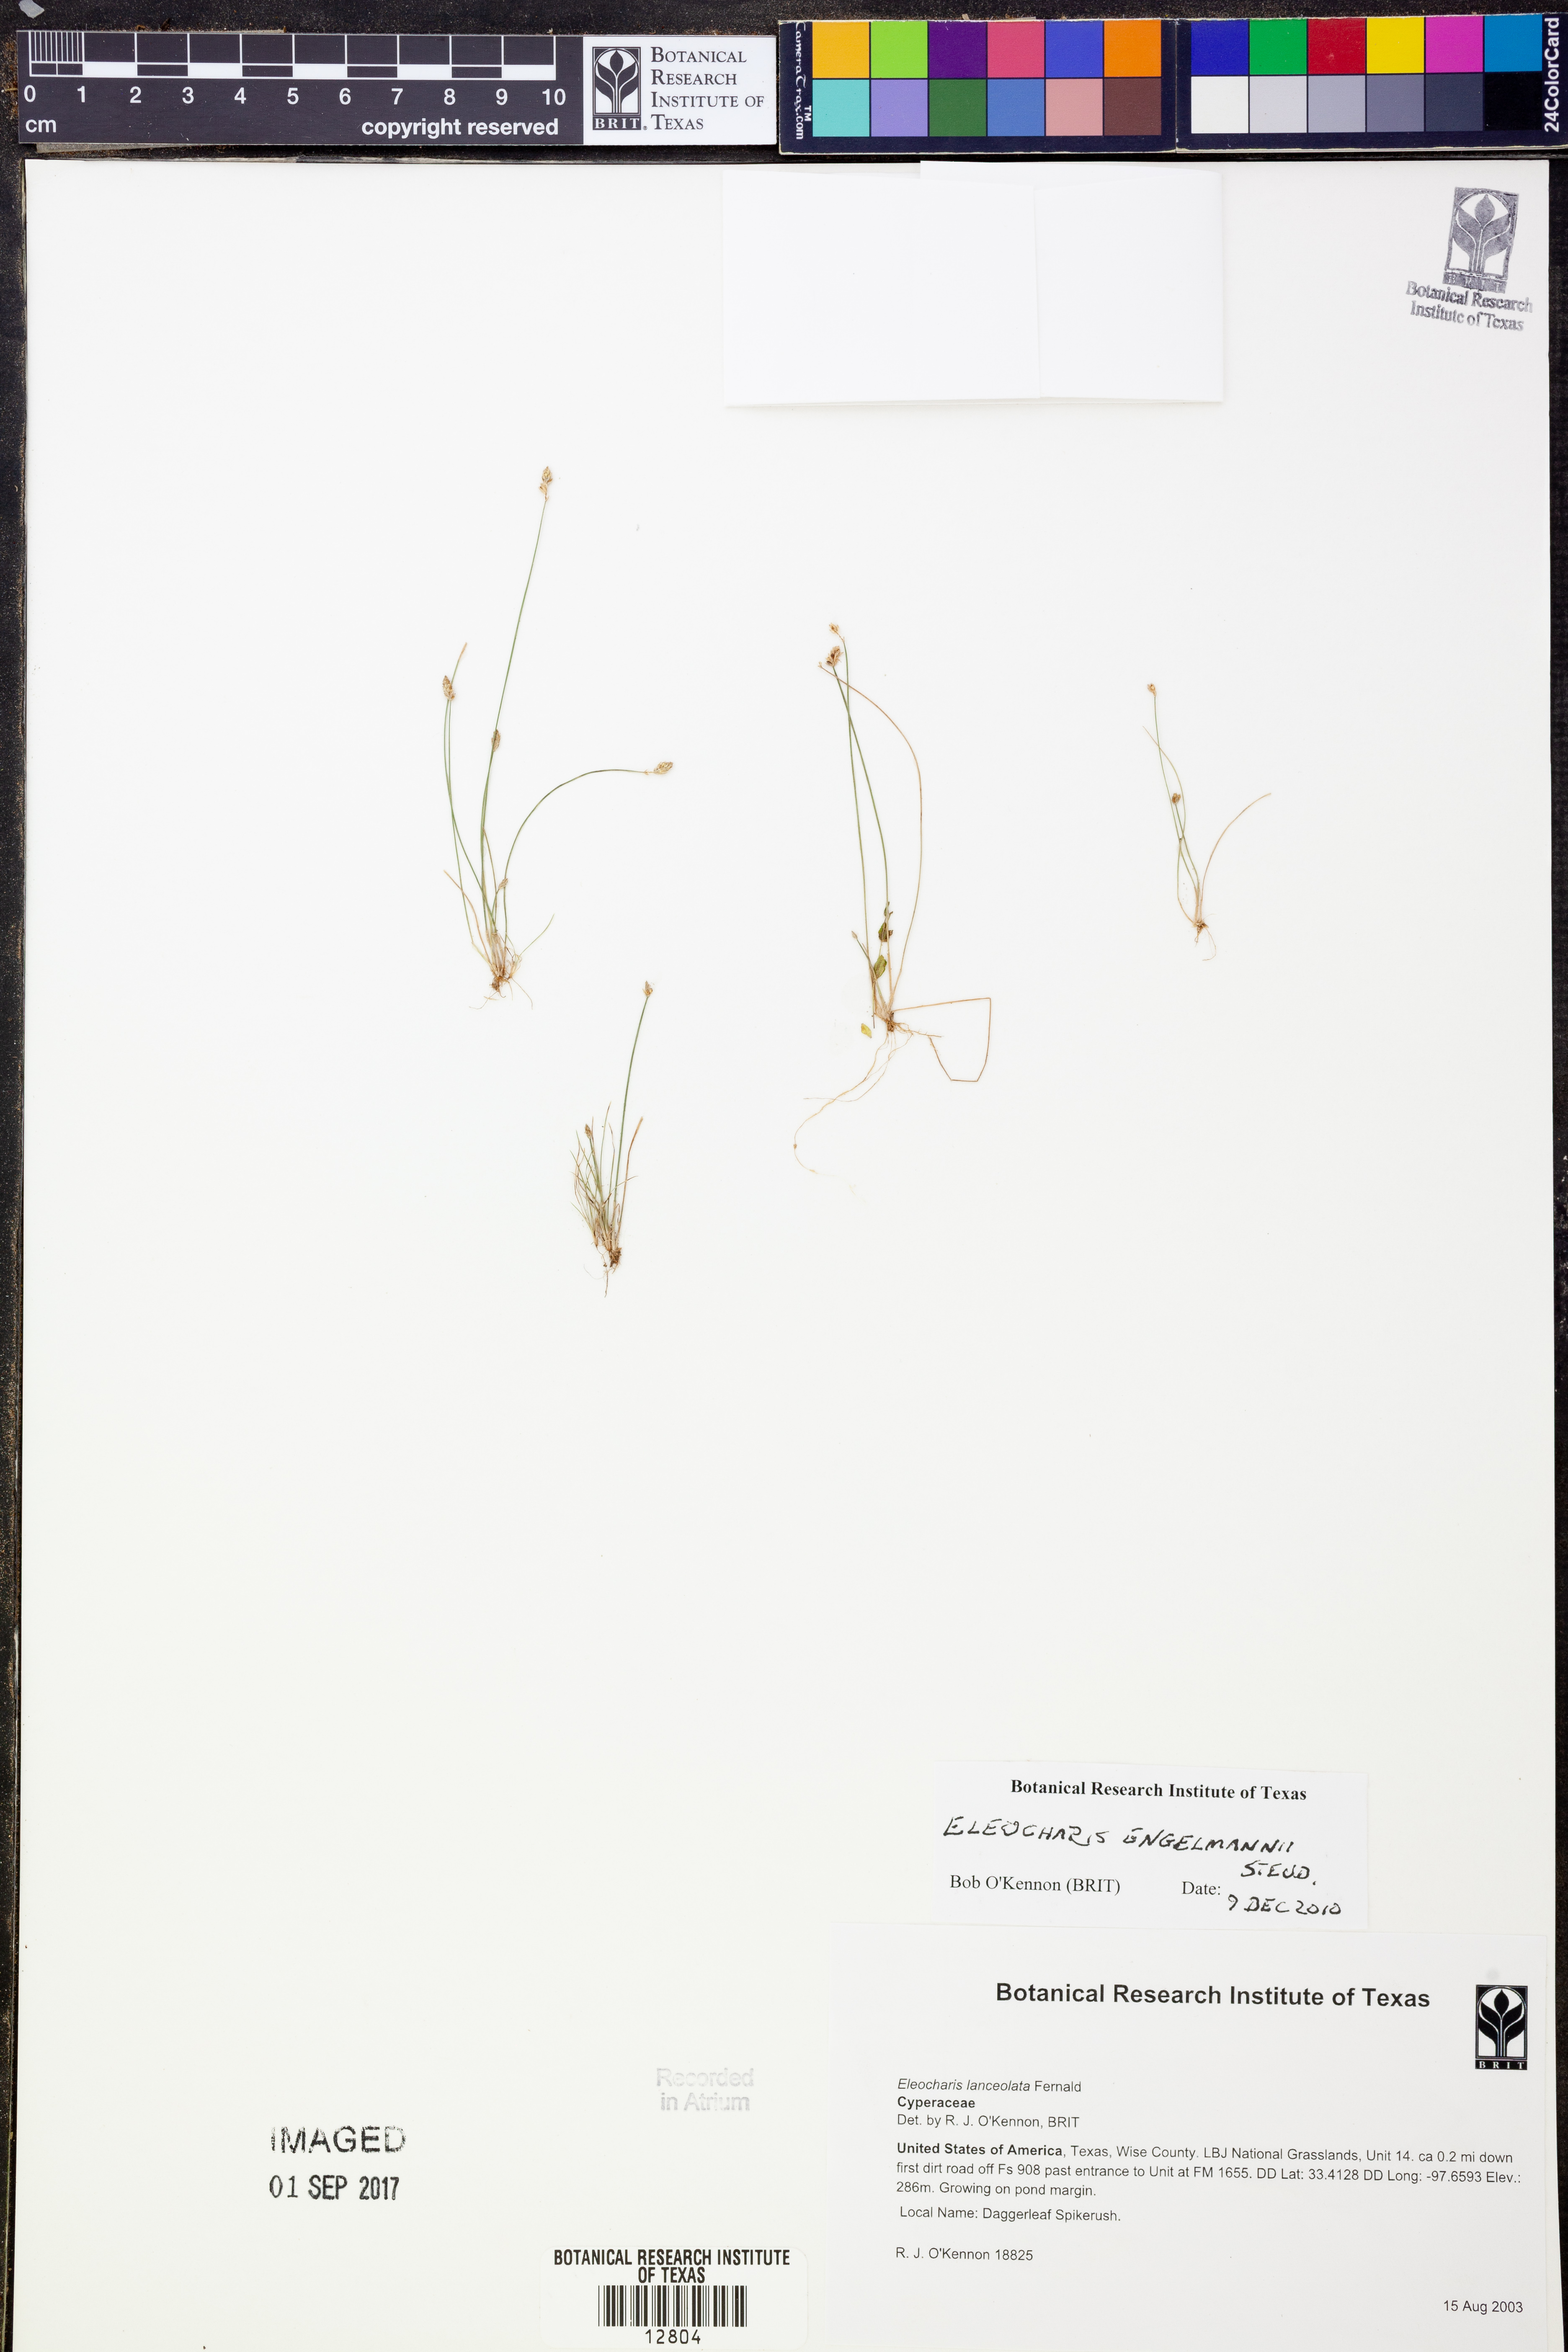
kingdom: Plantae
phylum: Tracheophyta
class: Liliopsida
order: Poales
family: Cyperaceae
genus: Eleocharis
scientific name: Eleocharis engelmannii
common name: Engelmann's spikerush
